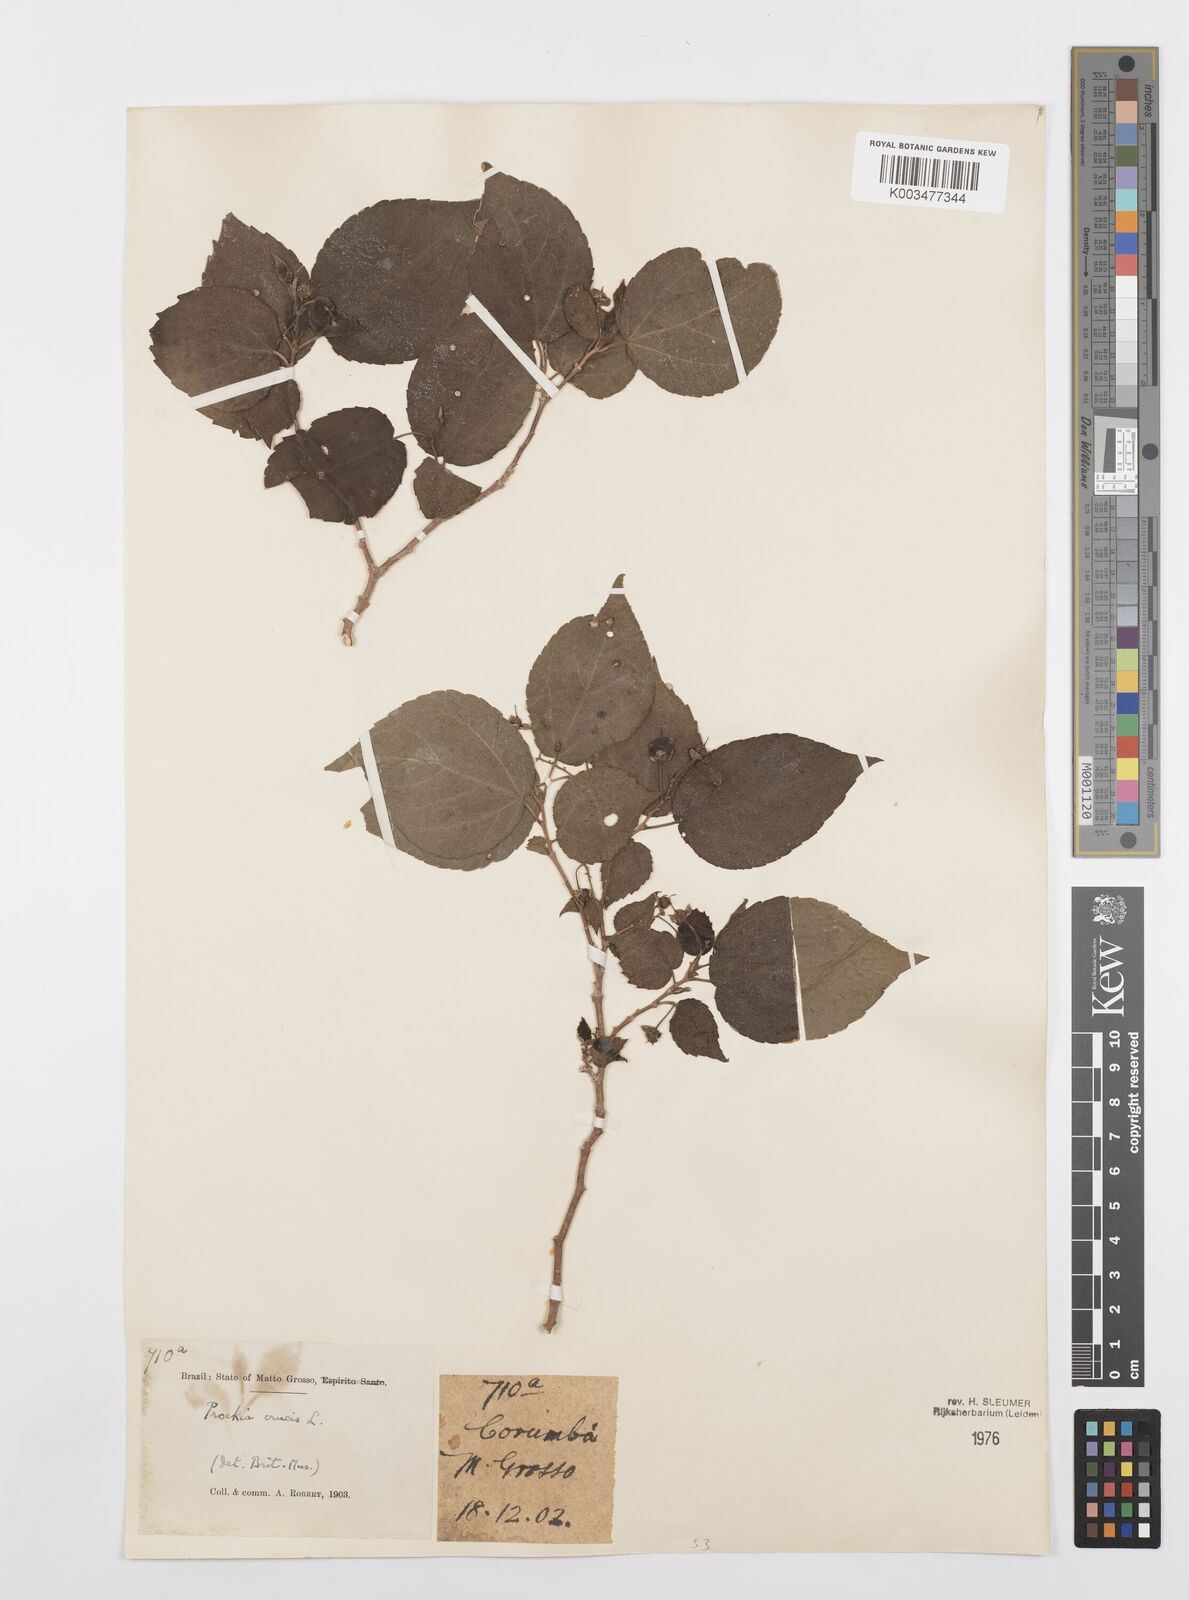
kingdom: Plantae
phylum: Tracheophyta
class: Magnoliopsida
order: Malpighiales
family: Salicaceae
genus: Prockia
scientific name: Prockia crucis
